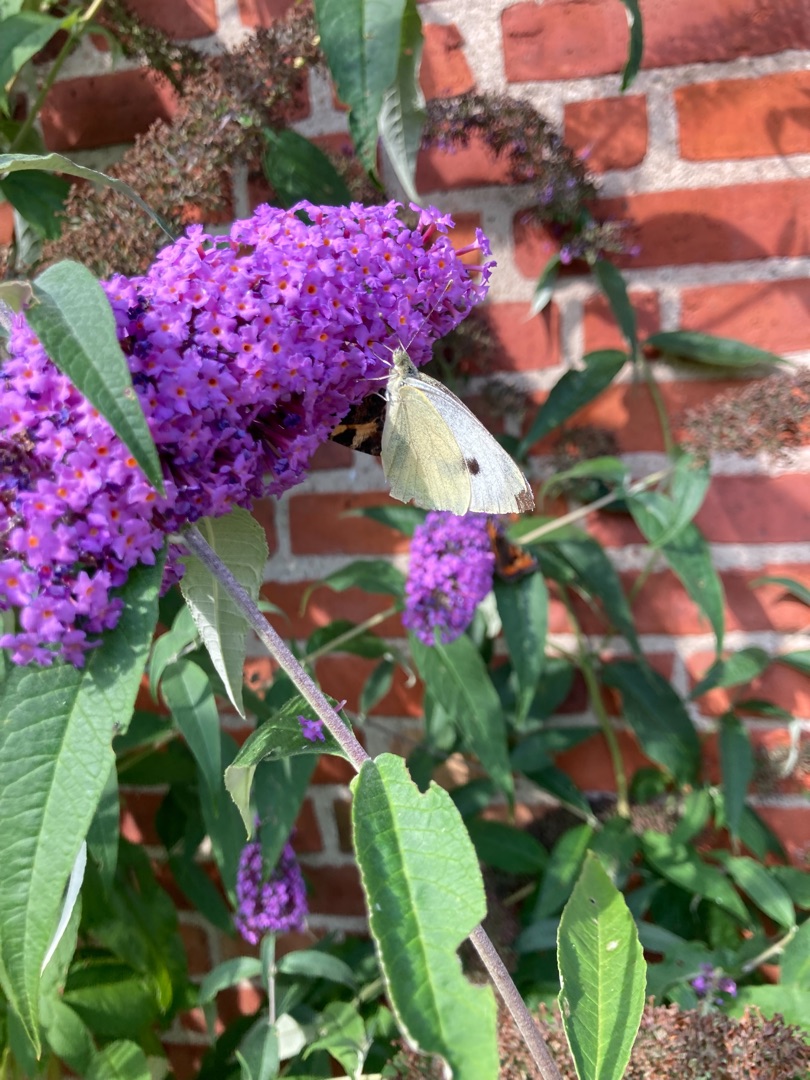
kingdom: Animalia
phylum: Arthropoda
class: Insecta
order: Lepidoptera
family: Pieridae
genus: Pieris
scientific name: Pieris brassicae
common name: Stor kålsommerfugl
